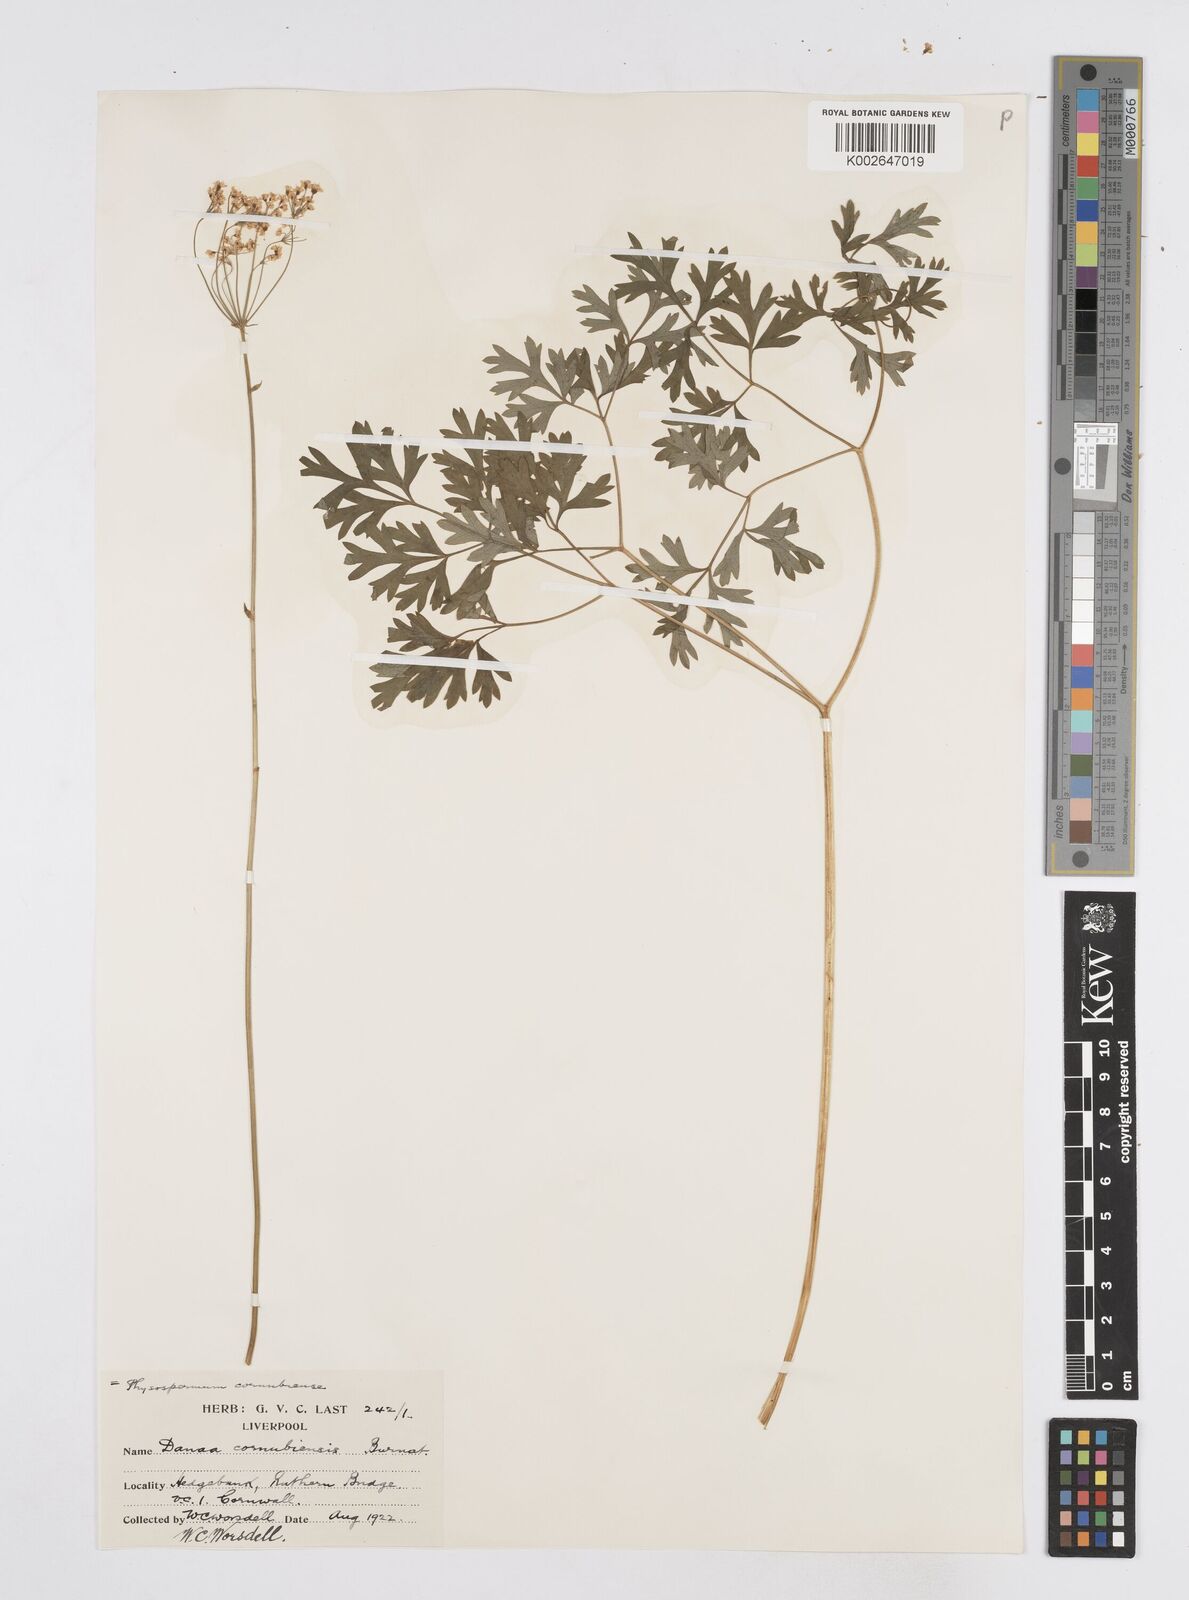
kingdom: Plantae
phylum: Tracheophyta
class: Magnoliopsida
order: Apiales
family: Apiaceae
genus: Physospermum
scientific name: Physospermum cornubiense
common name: Bladderseed
